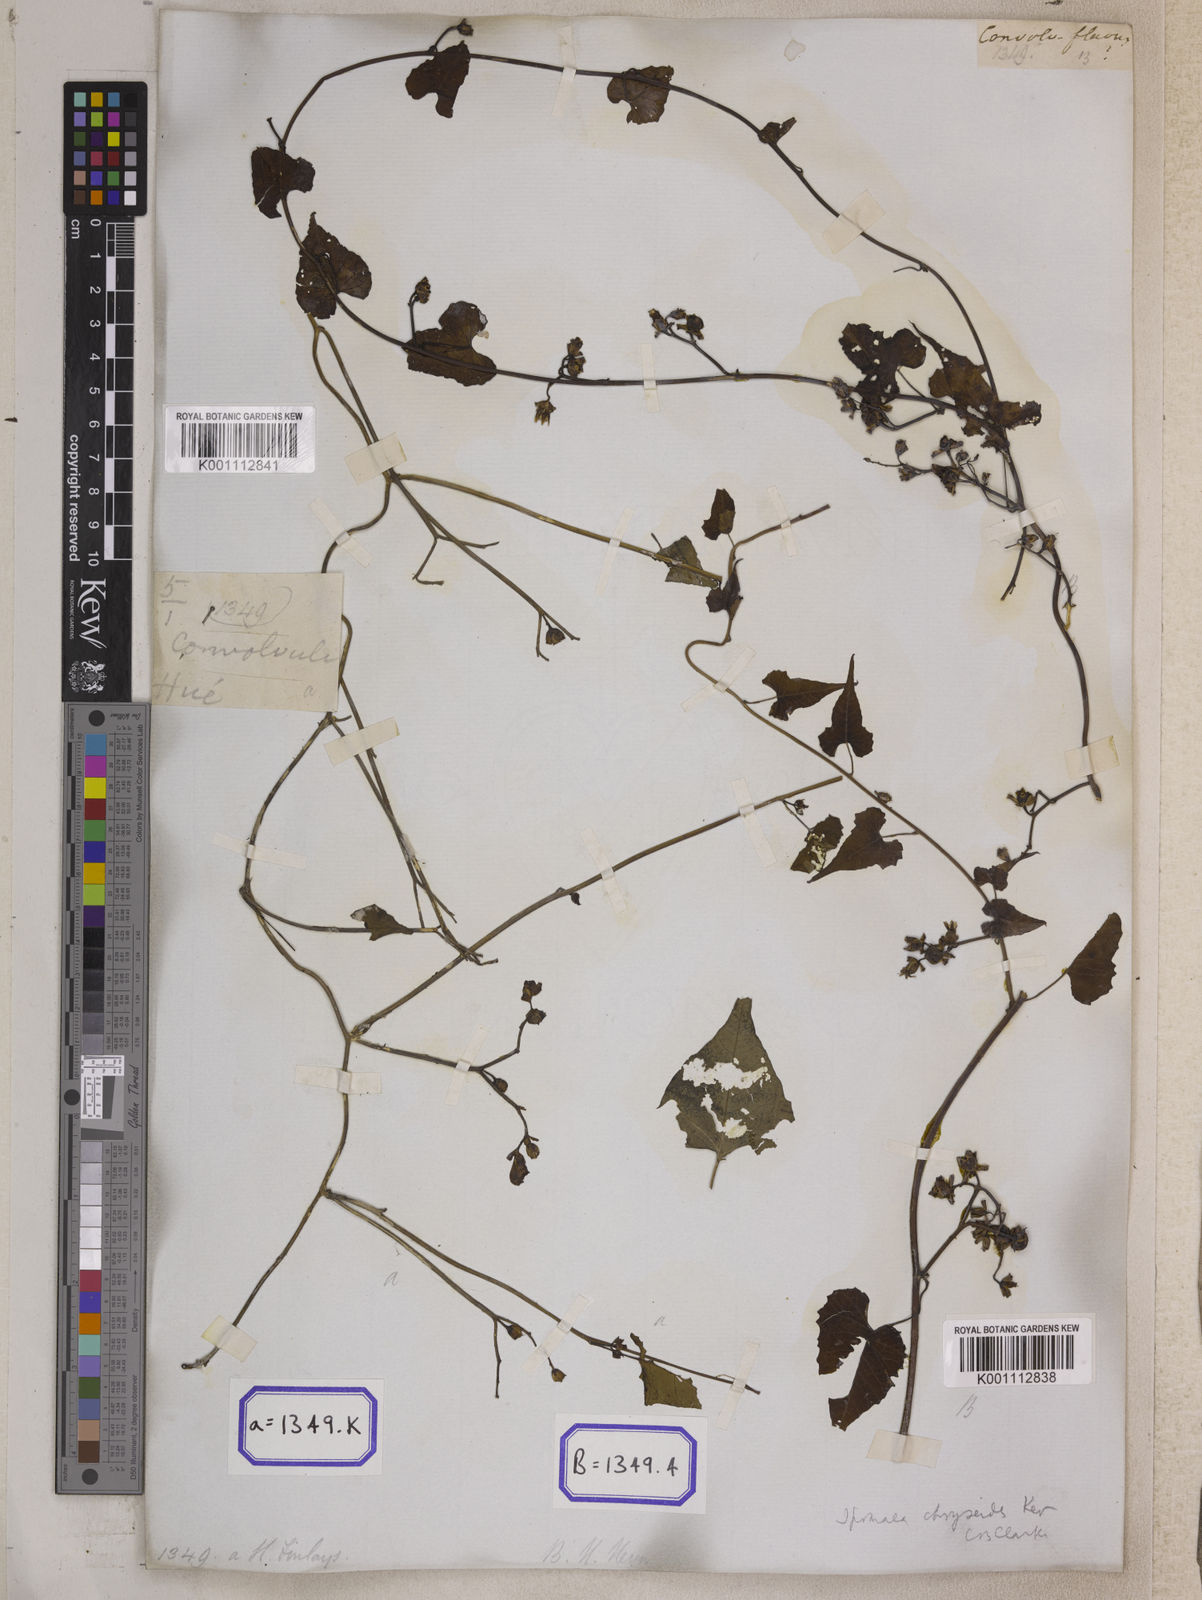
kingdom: Plantae
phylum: Tracheophyta
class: Magnoliopsida
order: Solanales
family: Convolvulaceae
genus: Merremia
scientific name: Merremia hederacea
